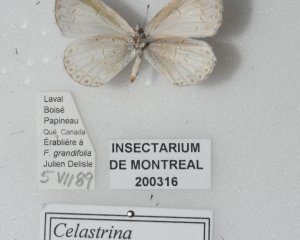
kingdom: Animalia
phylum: Arthropoda
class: Insecta
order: Lepidoptera
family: Lycaenidae
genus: Cyaniris
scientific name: Cyaniris neglecta
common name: Summer Azure
